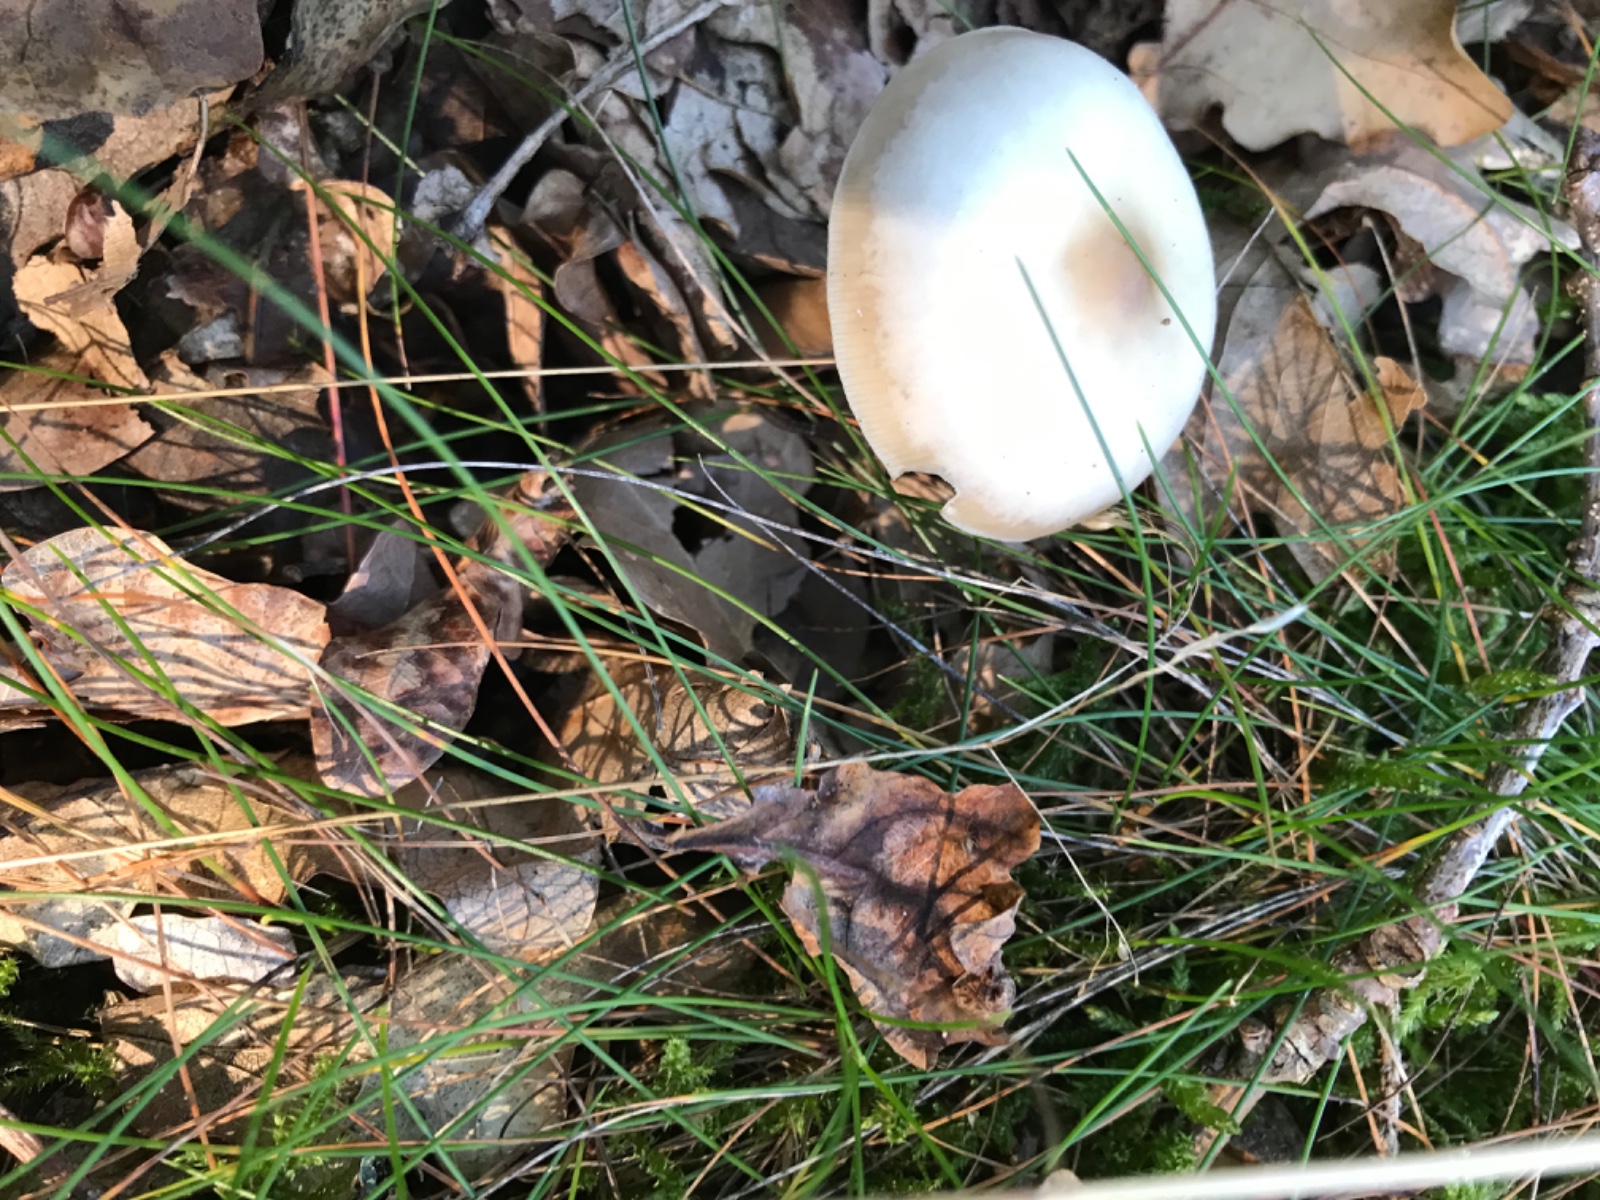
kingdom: Fungi
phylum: Basidiomycota
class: Agaricomycetes
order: Agaricales
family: Omphalotaceae
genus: Rhodocollybia
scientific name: Rhodocollybia asema
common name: horngrå fladhat
